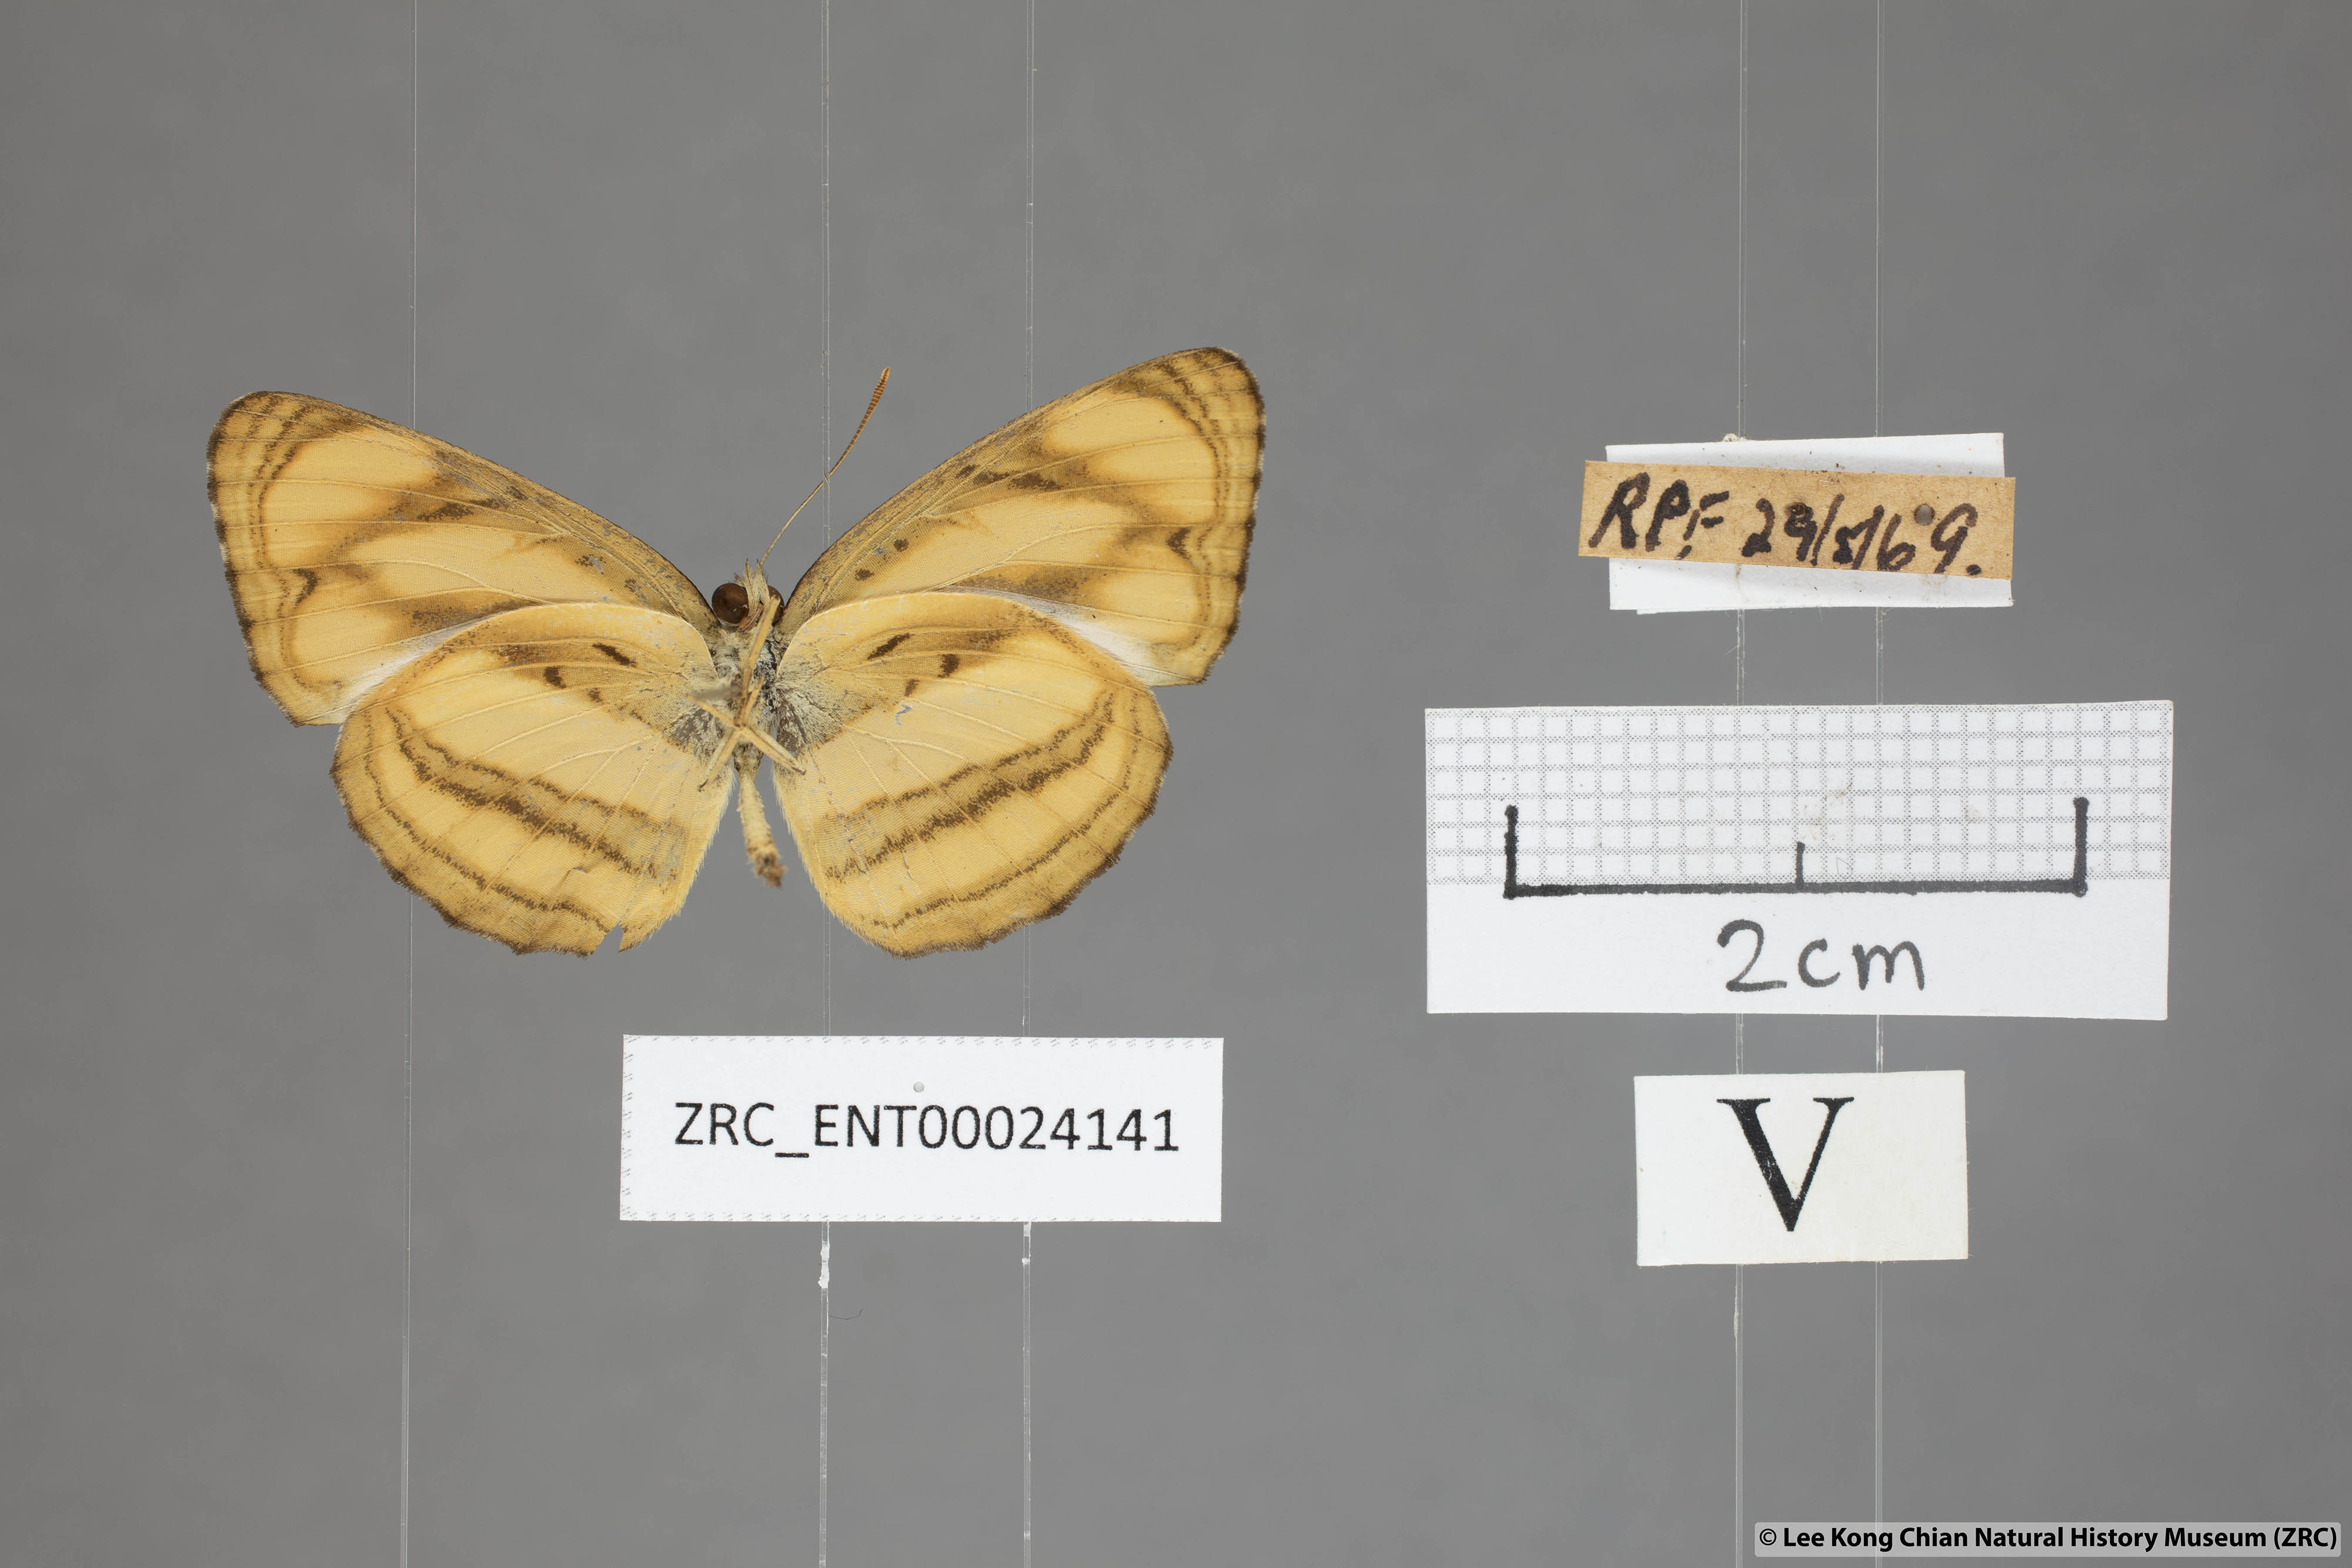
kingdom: Animalia
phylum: Arthropoda
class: Insecta
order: Lepidoptera
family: Nymphalidae
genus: Pantoporia
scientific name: Pantoporia paraka
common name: Perak lascar
